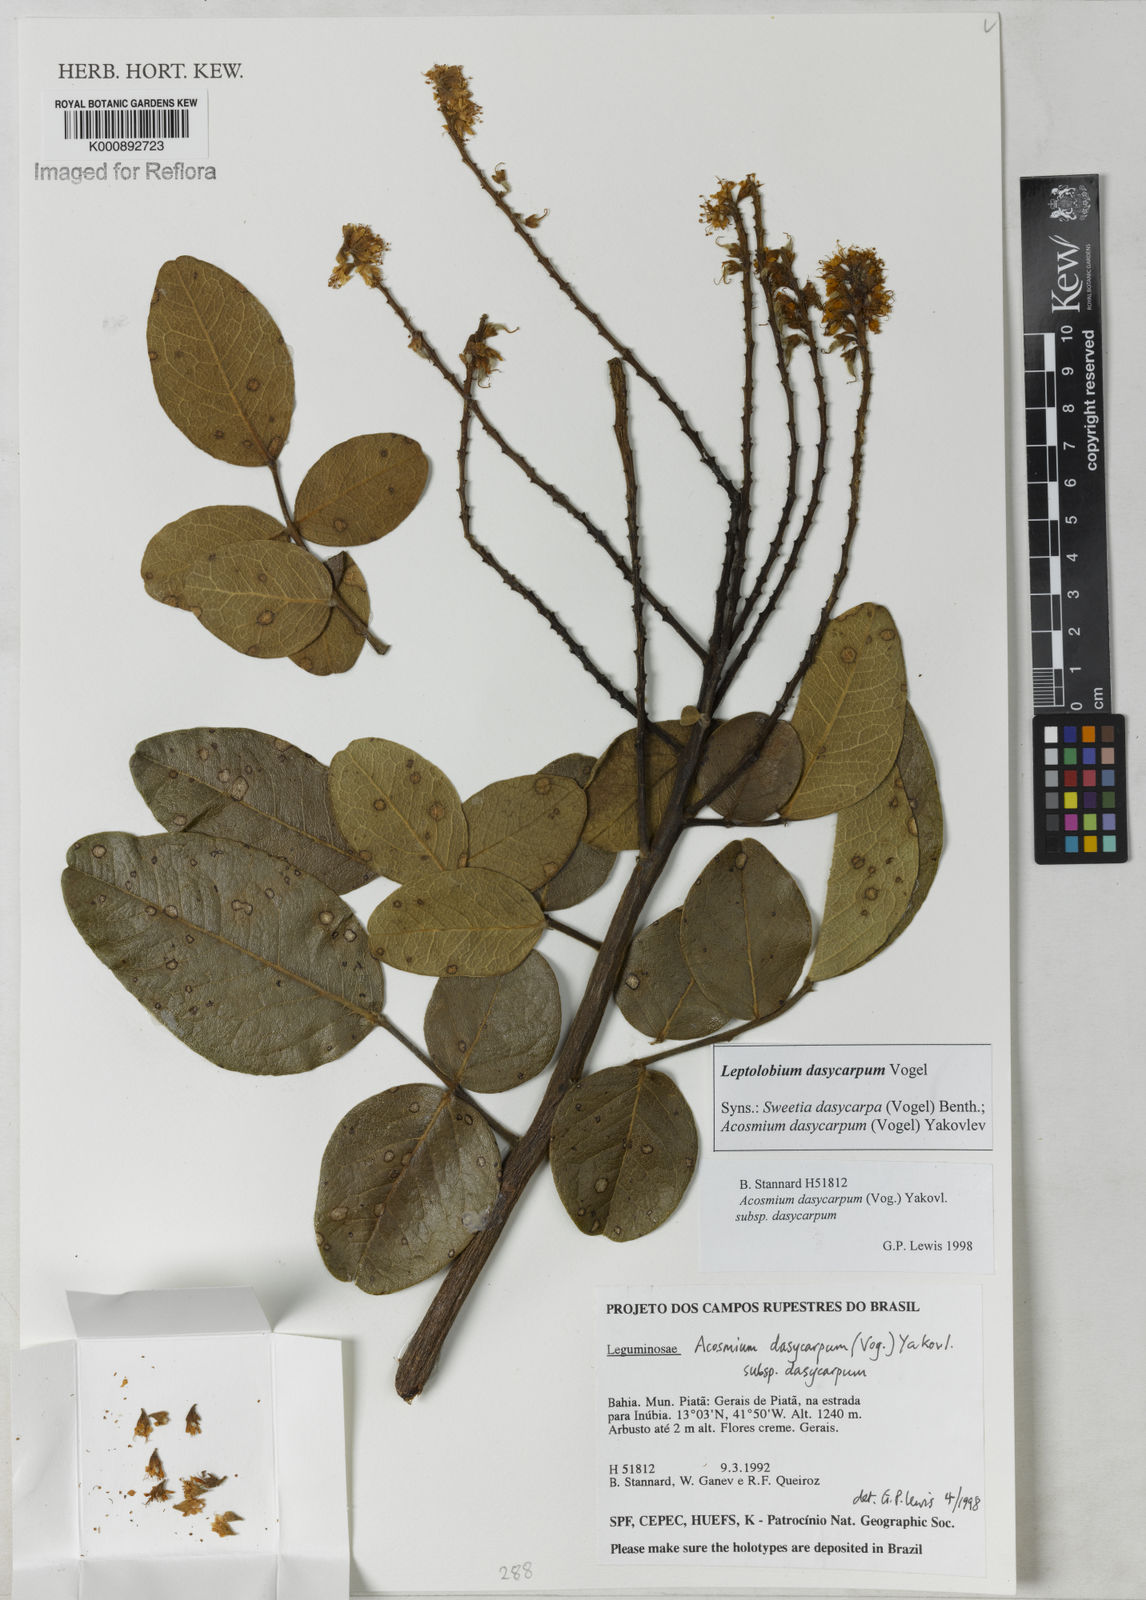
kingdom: Plantae
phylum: Tracheophyta
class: Magnoliopsida
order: Fabales
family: Fabaceae
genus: Leptolobium
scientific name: Leptolobium
